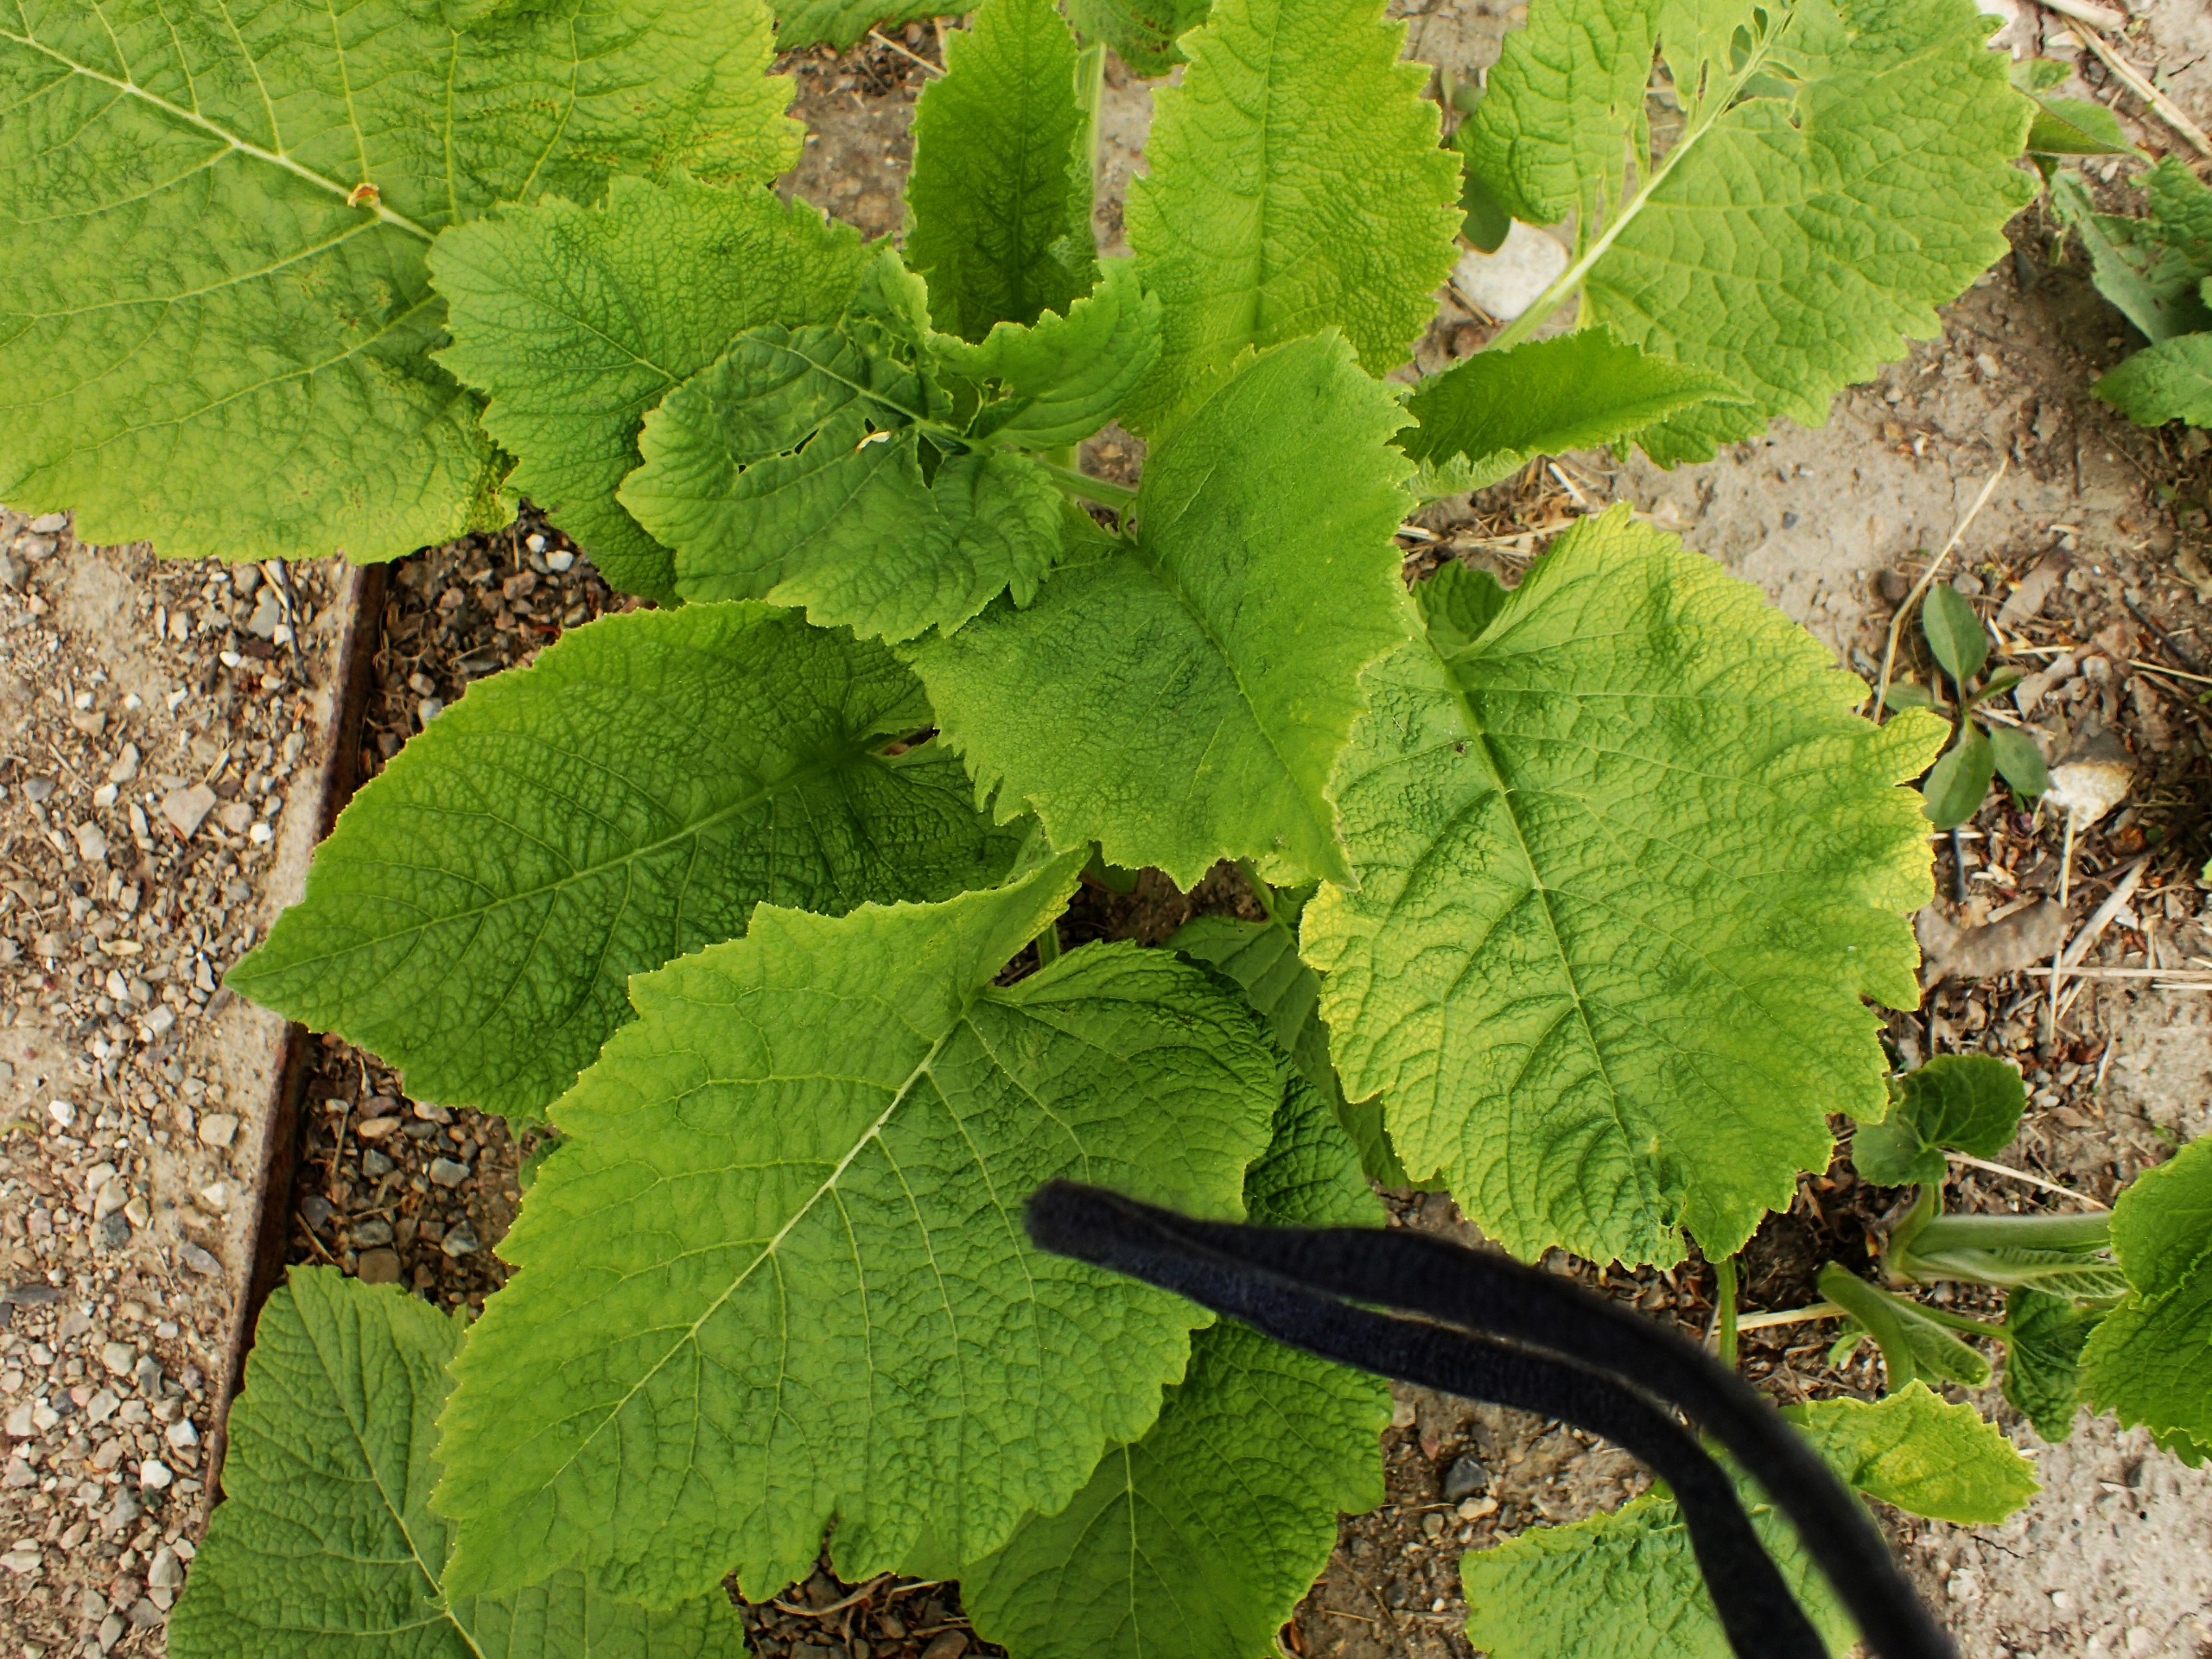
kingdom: Plantae
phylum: Tracheophyta
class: Magnoliopsida
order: Asterales
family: Asteraceae
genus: Telekia
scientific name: Telekia speciosa
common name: Tusindstråle
